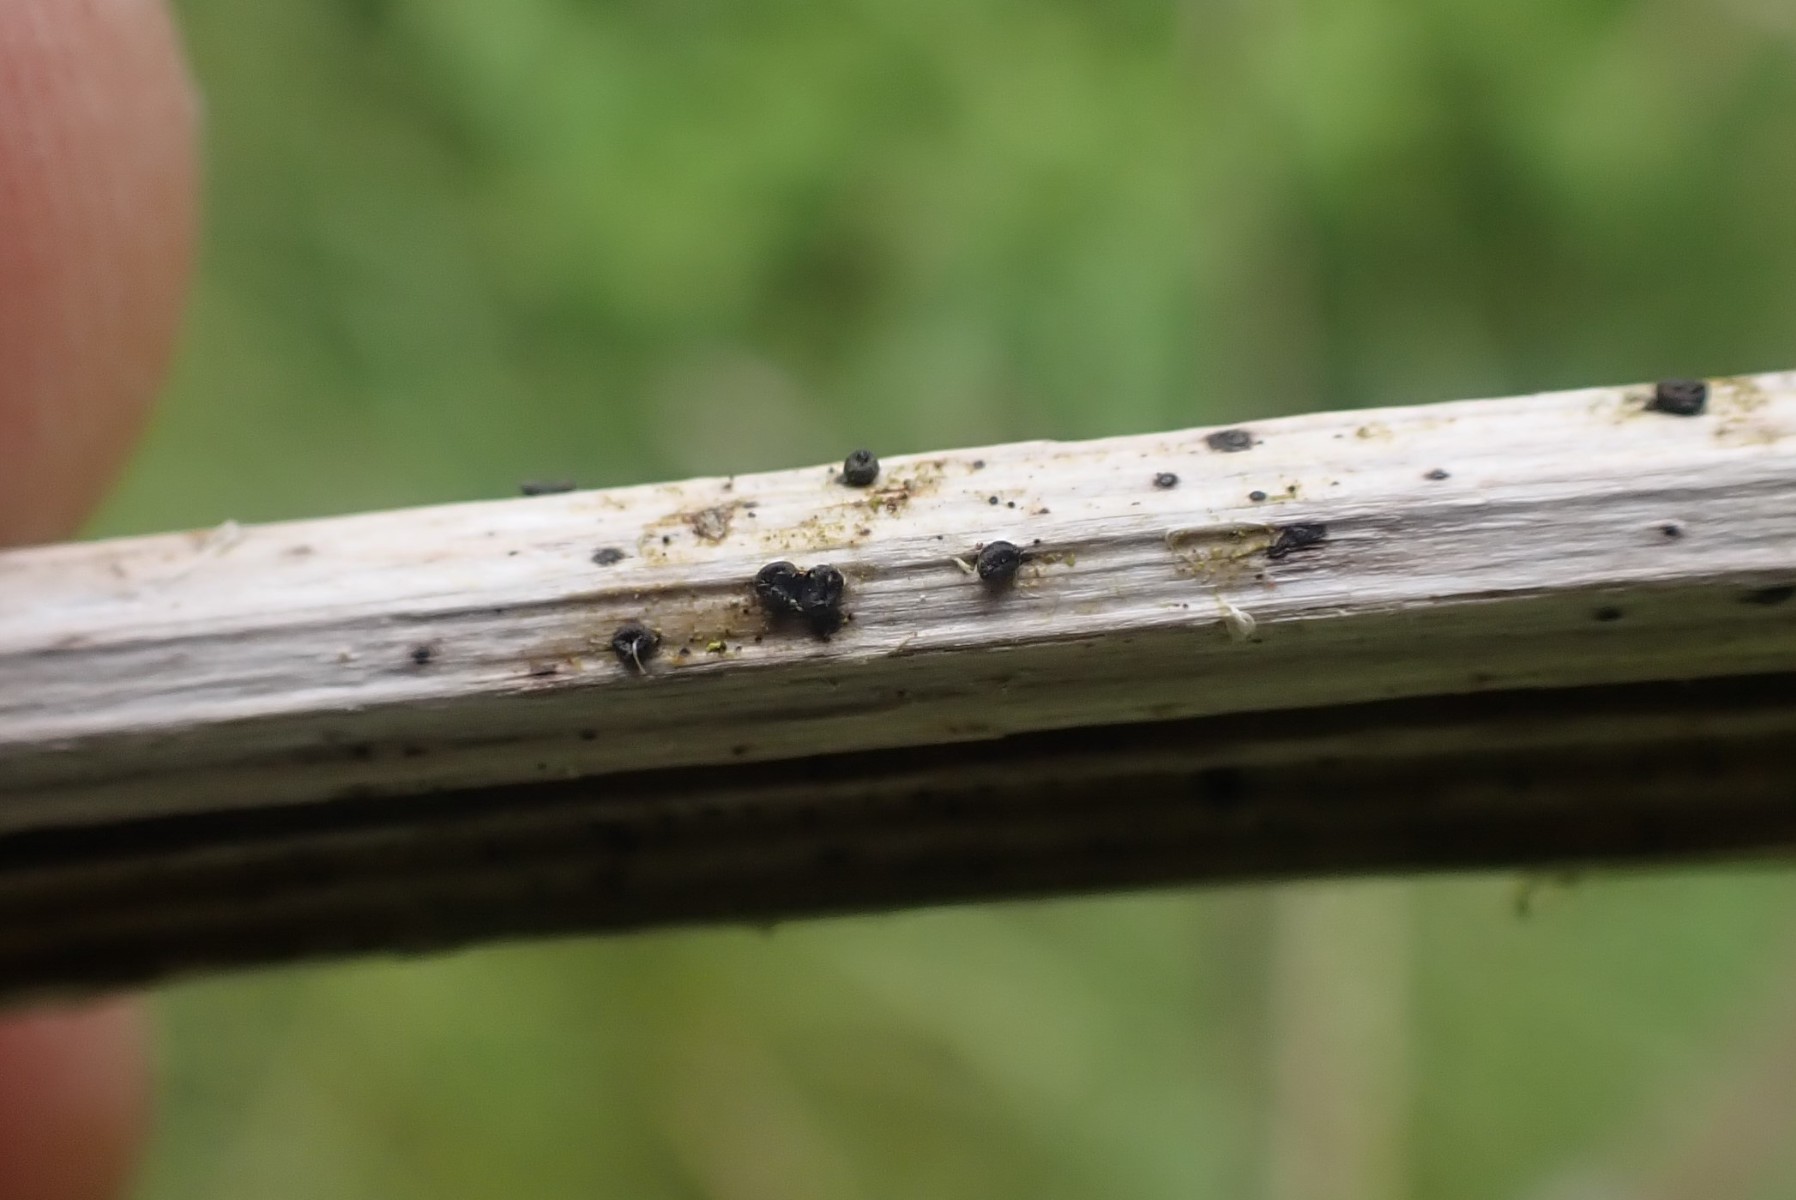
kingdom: Fungi
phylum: Ascomycota
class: Leotiomycetes
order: Helotiales
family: Heterosphaeriaceae
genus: Heterosphaeria
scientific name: Heterosphaeria
